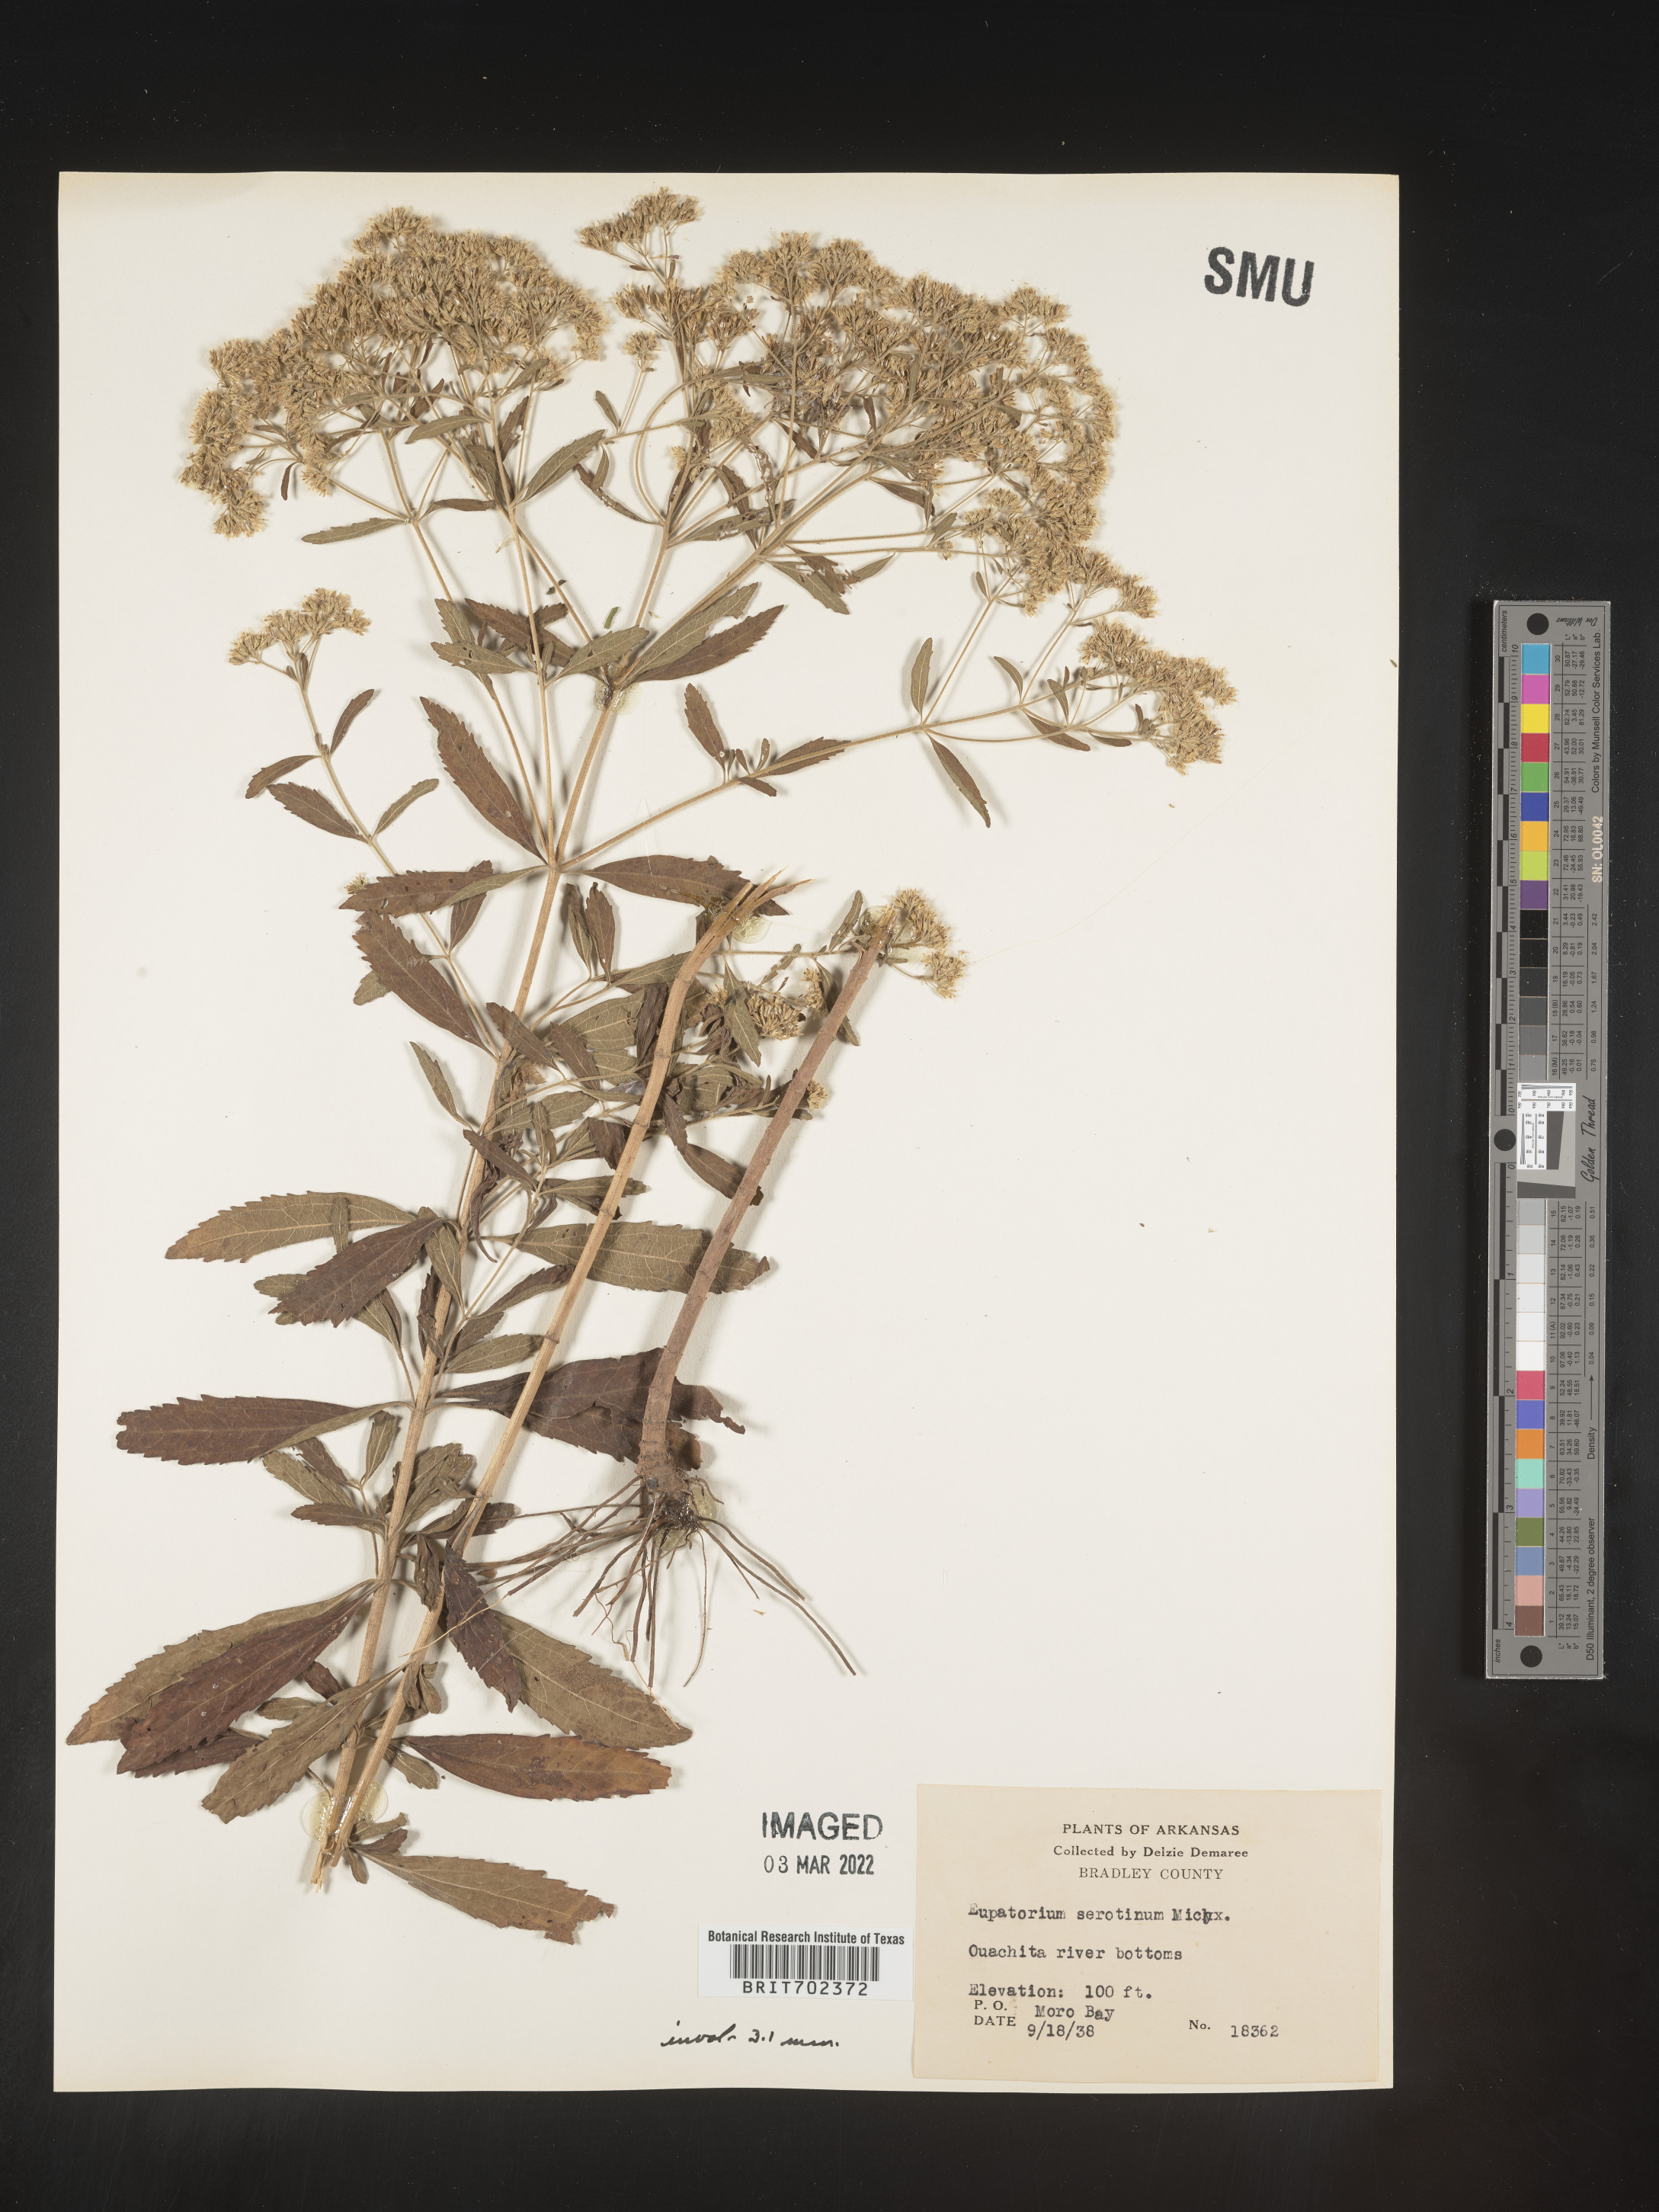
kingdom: Plantae
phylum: Tracheophyta
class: Magnoliopsida
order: Asterales
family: Asteraceae
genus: Eupatorium
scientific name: Eupatorium serotinum
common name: Late boneset
